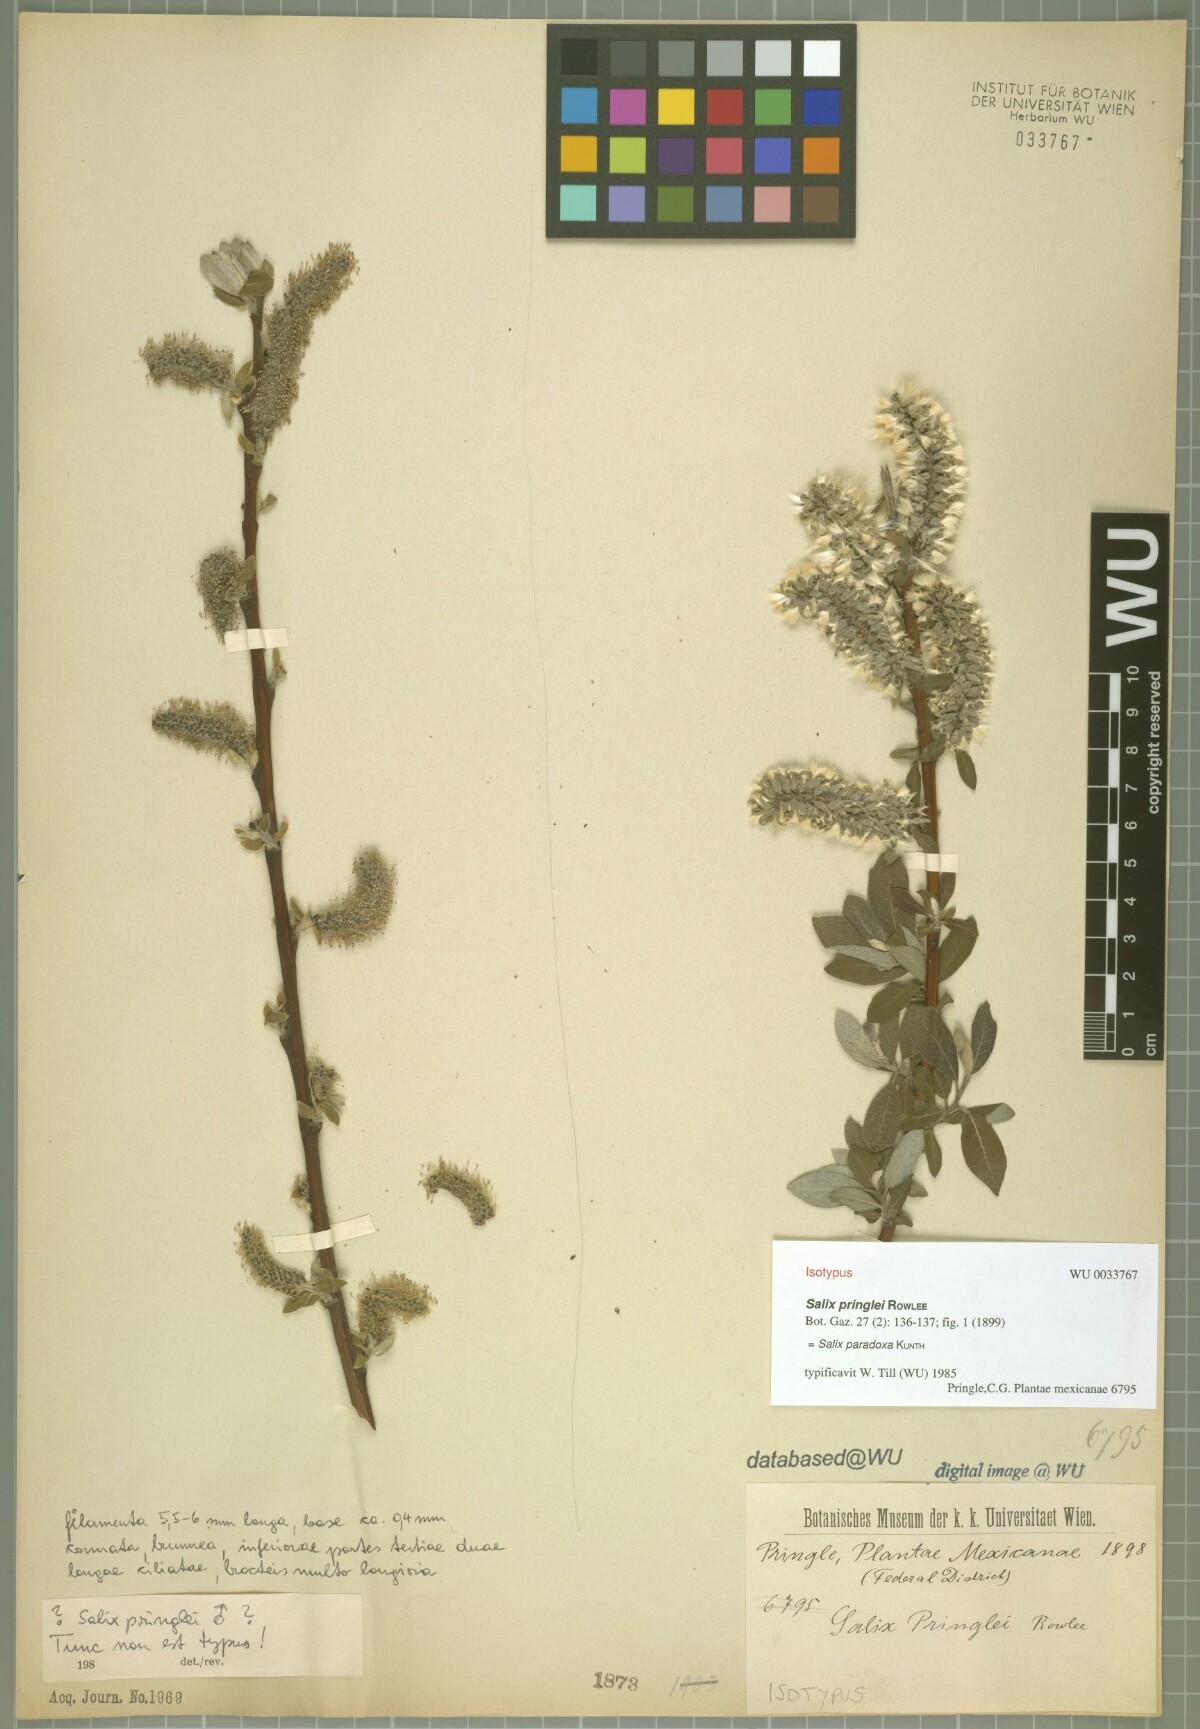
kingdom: Plantae
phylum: Tracheophyta
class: Magnoliopsida
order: Malpighiales
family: Salicaceae
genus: Salix
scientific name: Salix paradoxa
